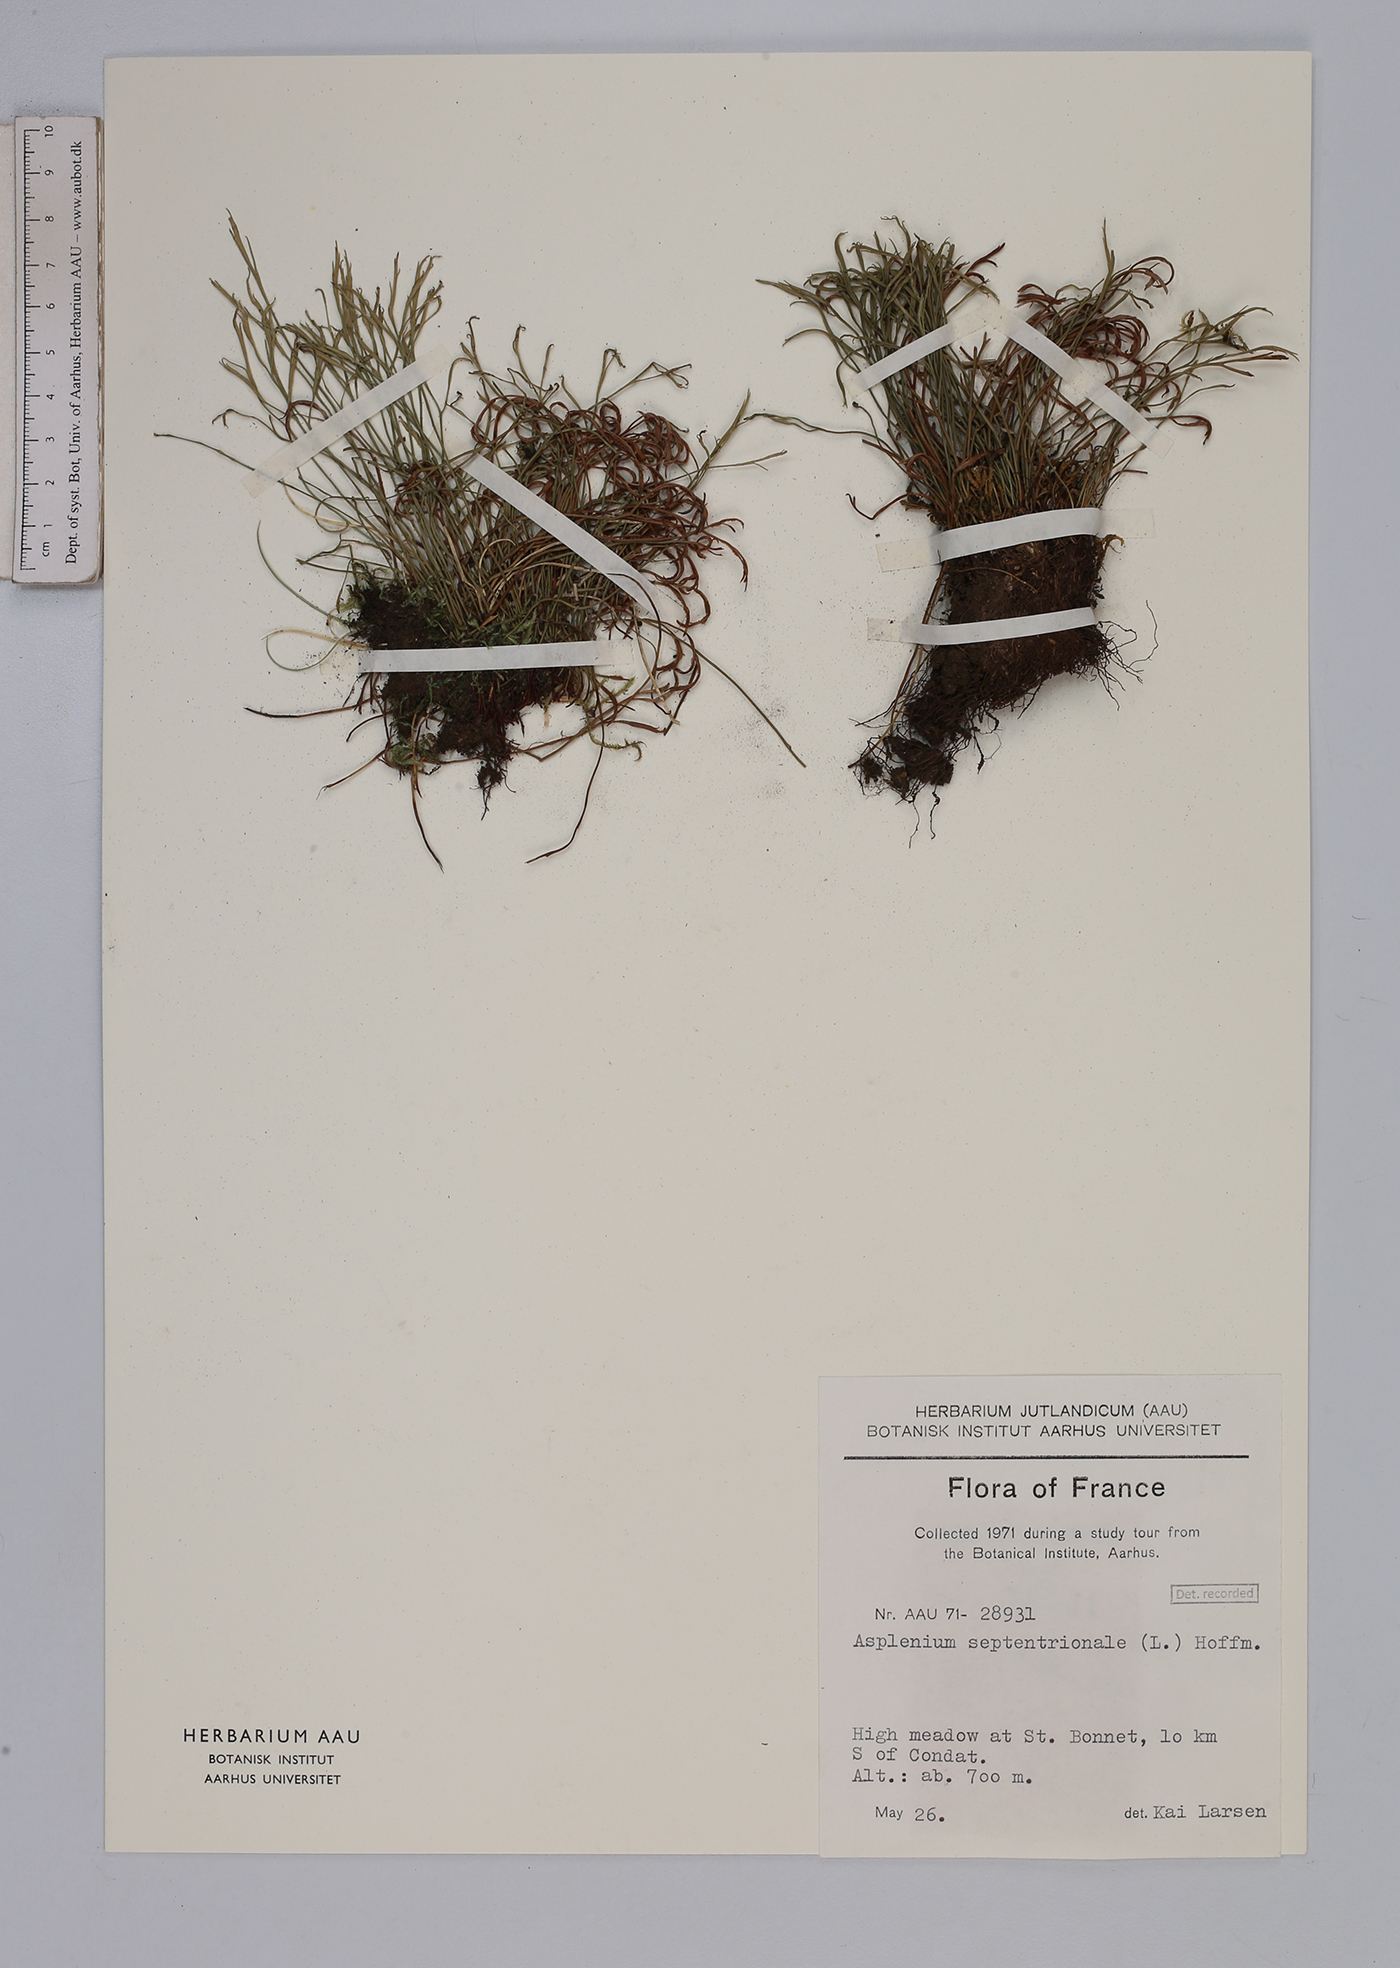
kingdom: Plantae
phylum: Tracheophyta
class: Polypodiopsida
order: Polypodiales
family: Aspleniaceae
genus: Asplenium
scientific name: Asplenium septentrionale
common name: Forked spleenwort
